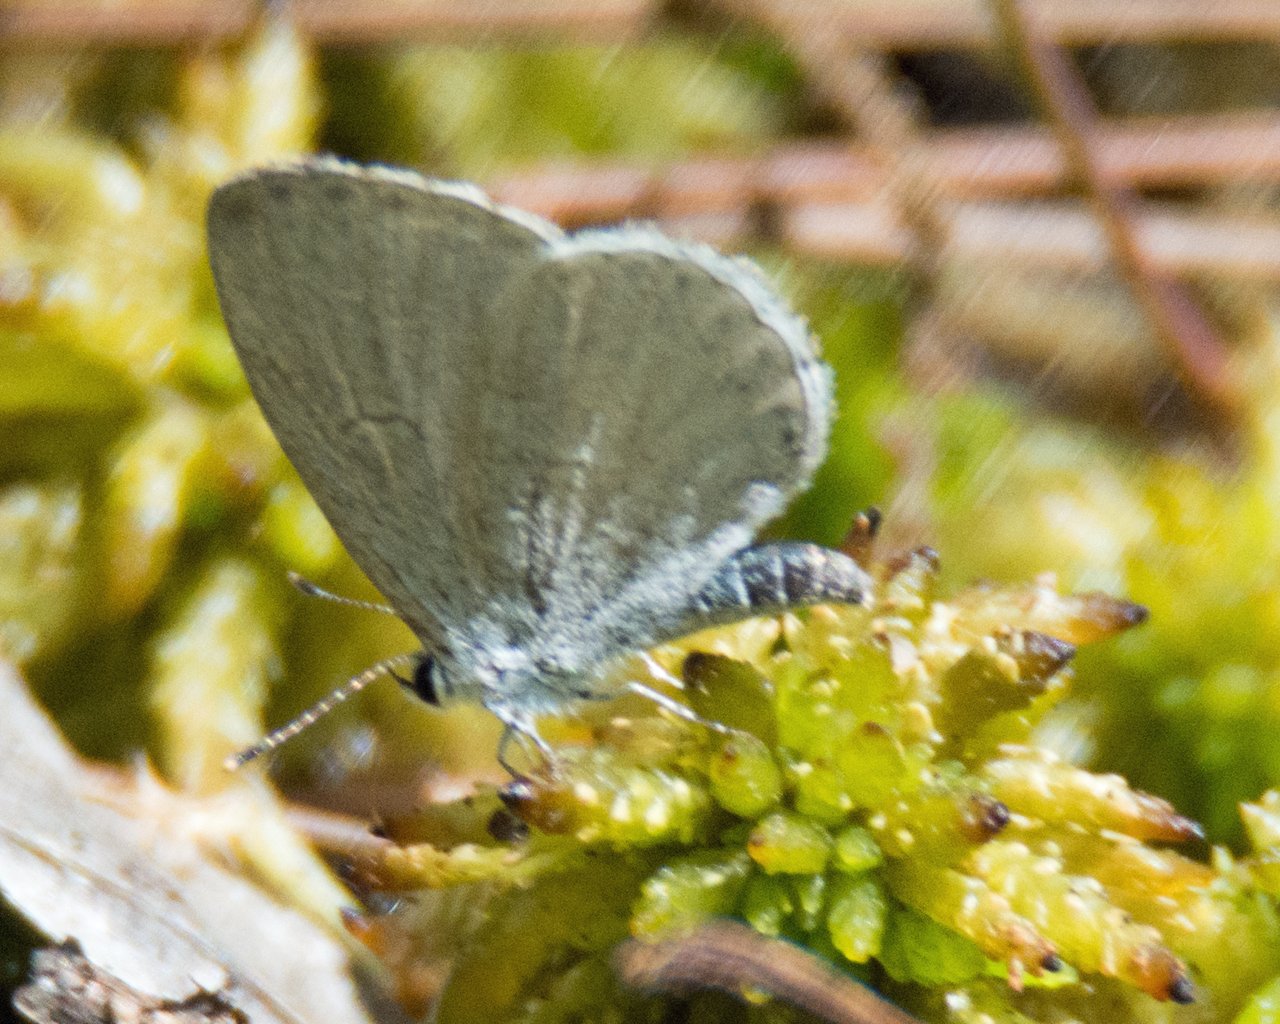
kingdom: Animalia
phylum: Arthropoda
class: Insecta
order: Lepidoptera
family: Lycaenidae
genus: Celastrina
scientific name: Celastrina
